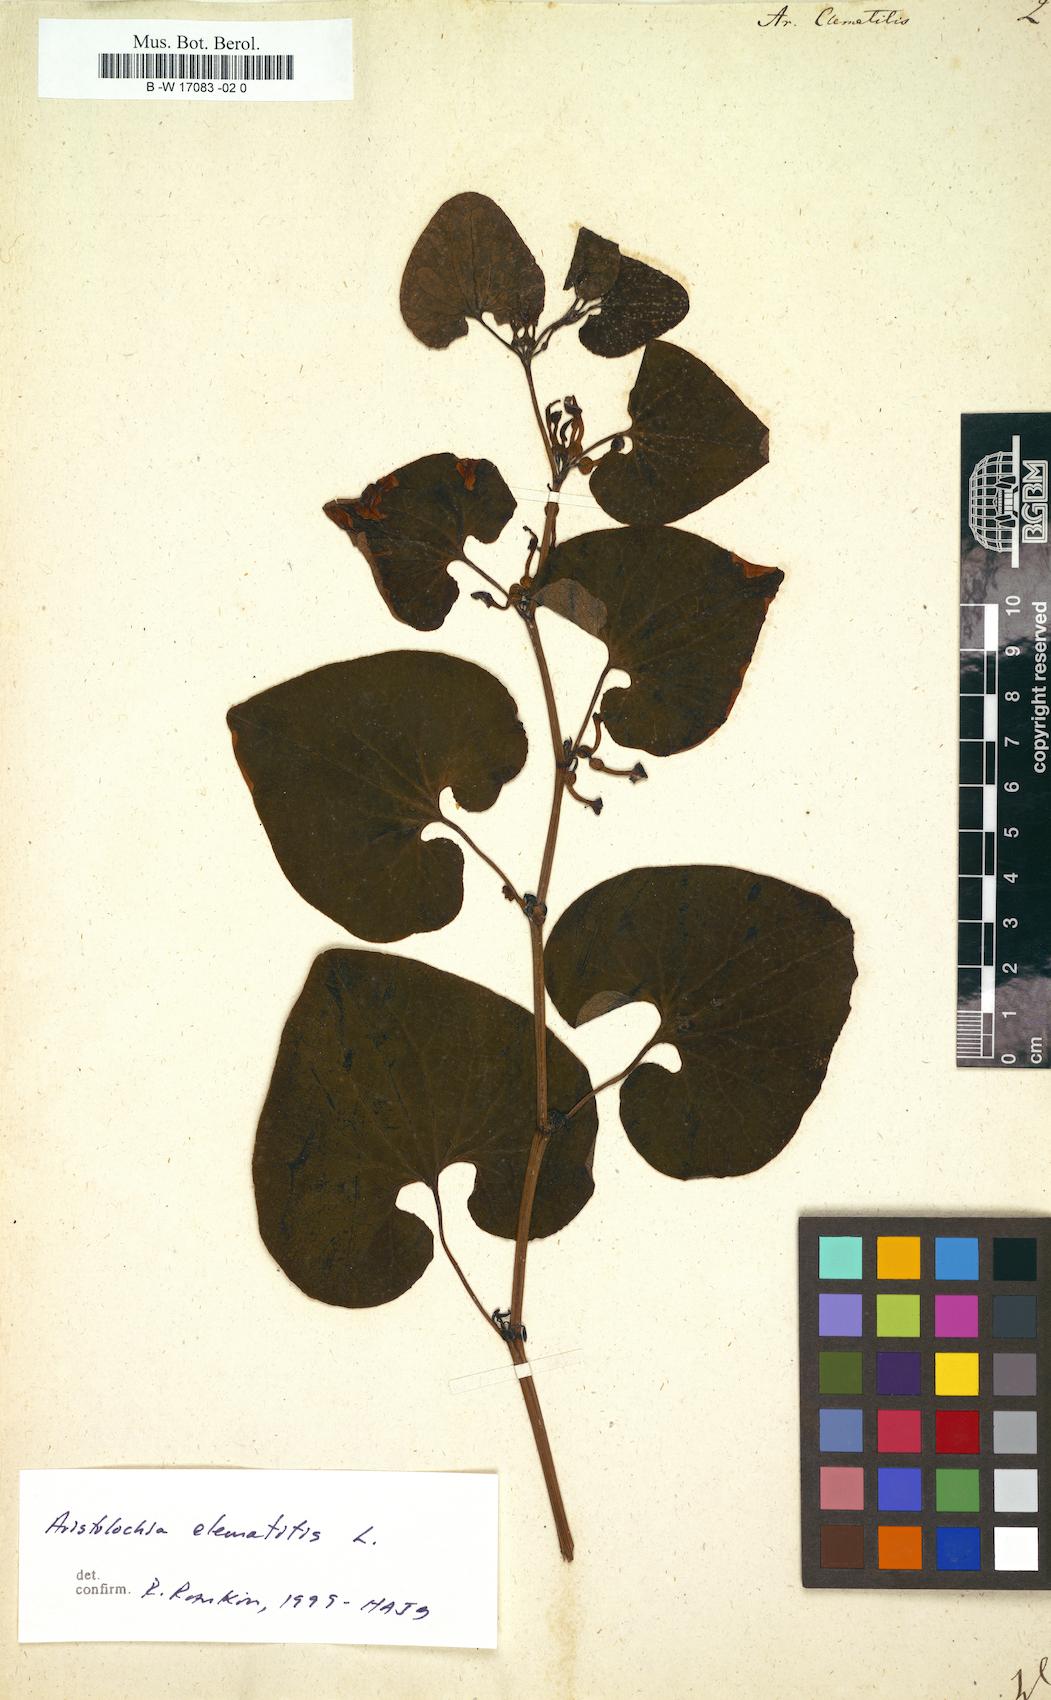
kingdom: Plantae
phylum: Tracheophyta
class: Magnoliopsida
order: Piperales
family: Aristolochiaceae
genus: Aristolochia
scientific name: Aristolochia clematitis
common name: Birthwort
